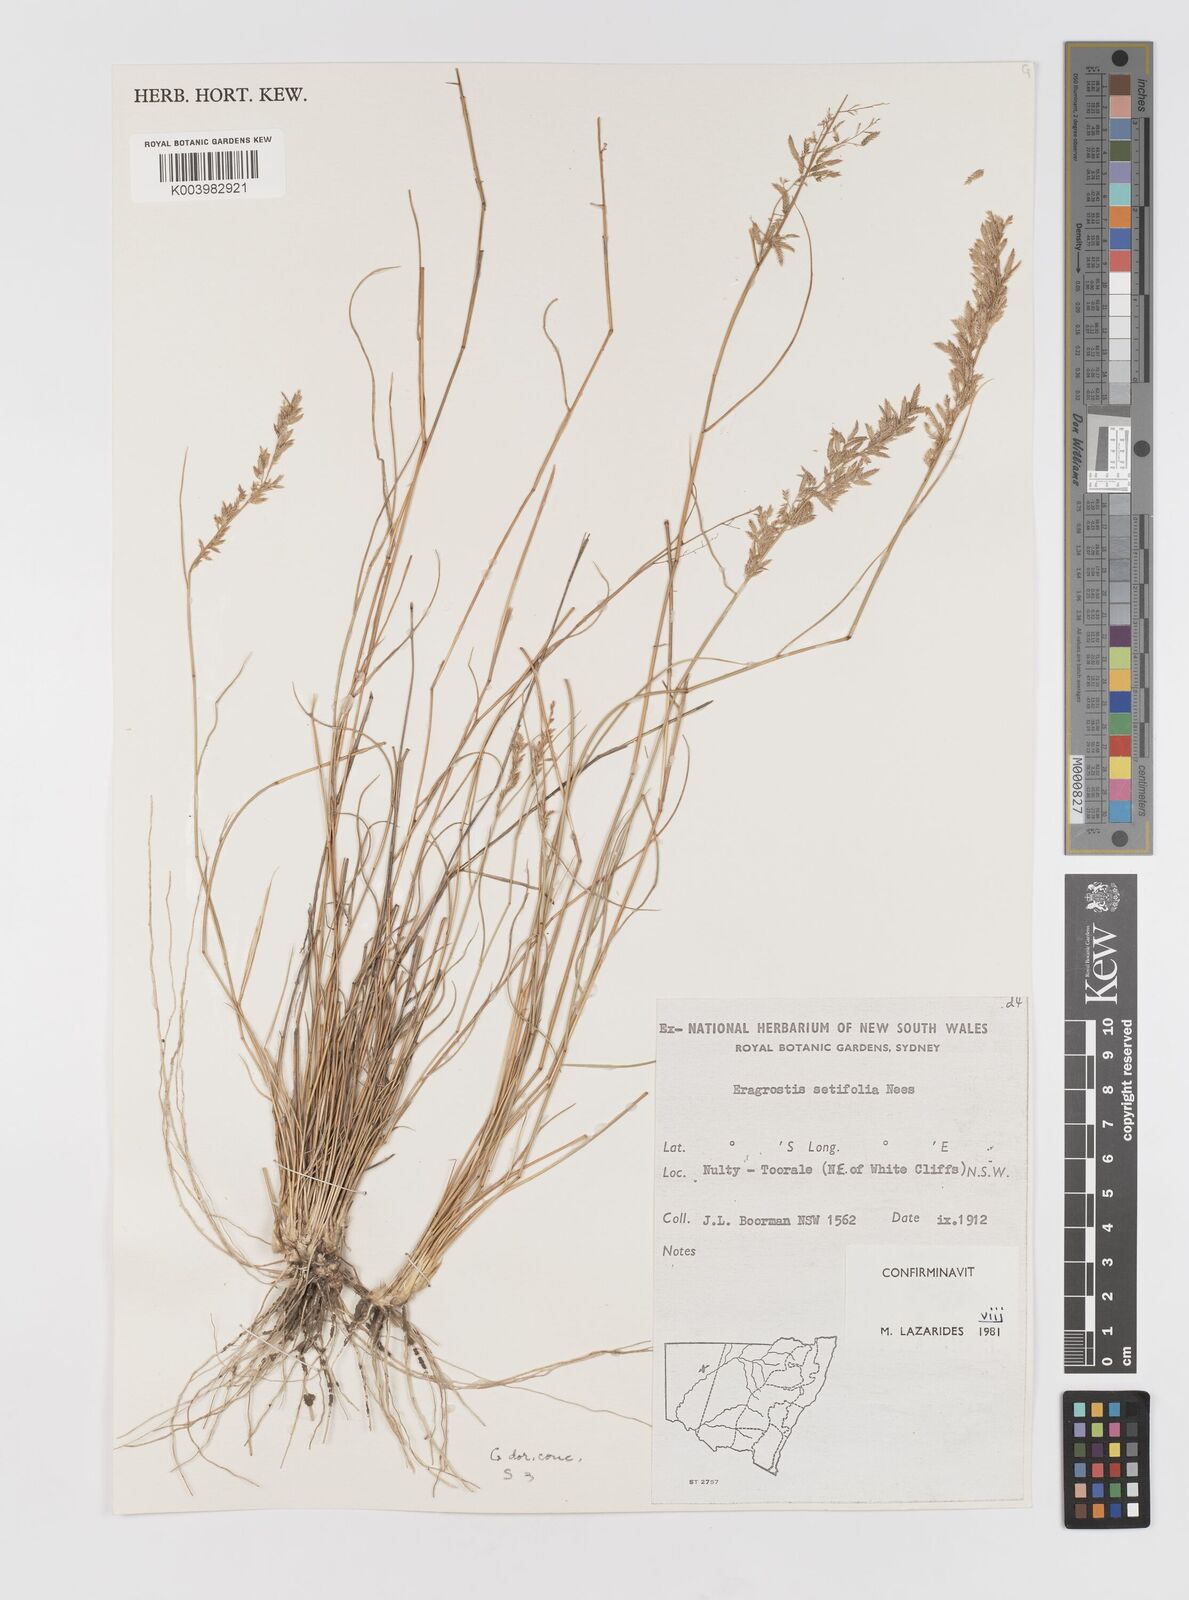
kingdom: Plantae
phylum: Tracheophyta
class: Liliopsida
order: Poales
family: Poaceae
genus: Eragrostis
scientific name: Eragrostis setifolia
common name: Bristleleaf lovegrass
